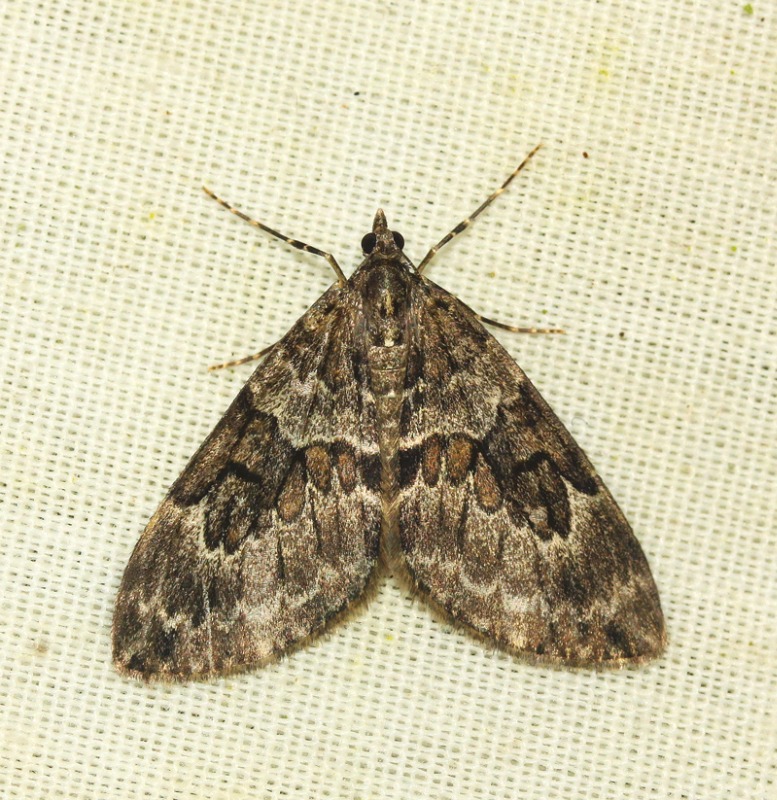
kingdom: Animalia
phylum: Arthropoda
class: Insecta
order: Lepidoptera
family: Geometridae
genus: Thera
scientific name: Thera britannica
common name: Ædelgranmåler
